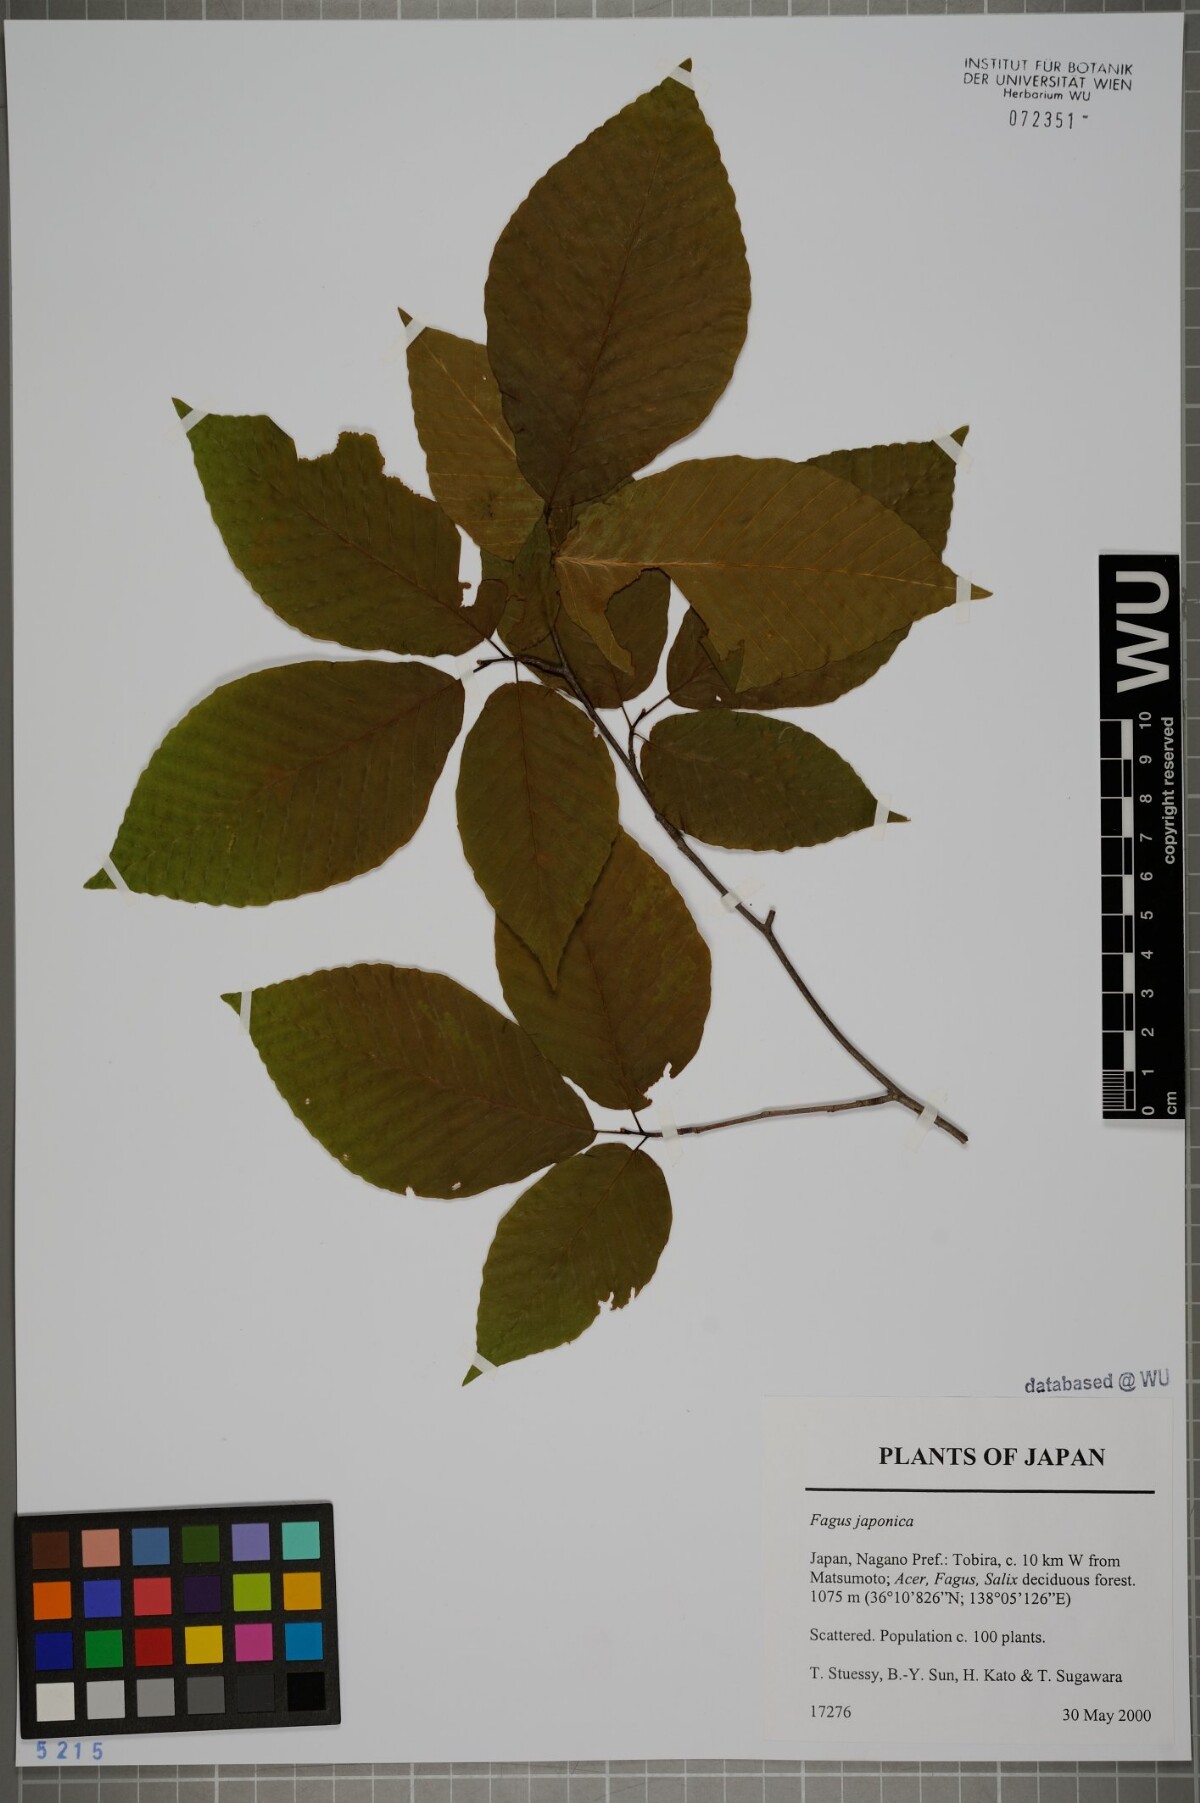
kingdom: Plantae
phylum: Tracheophyta
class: Magnoliopsida
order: Fagales
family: Fagaceae
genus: Fagus
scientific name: Fagus japonica
